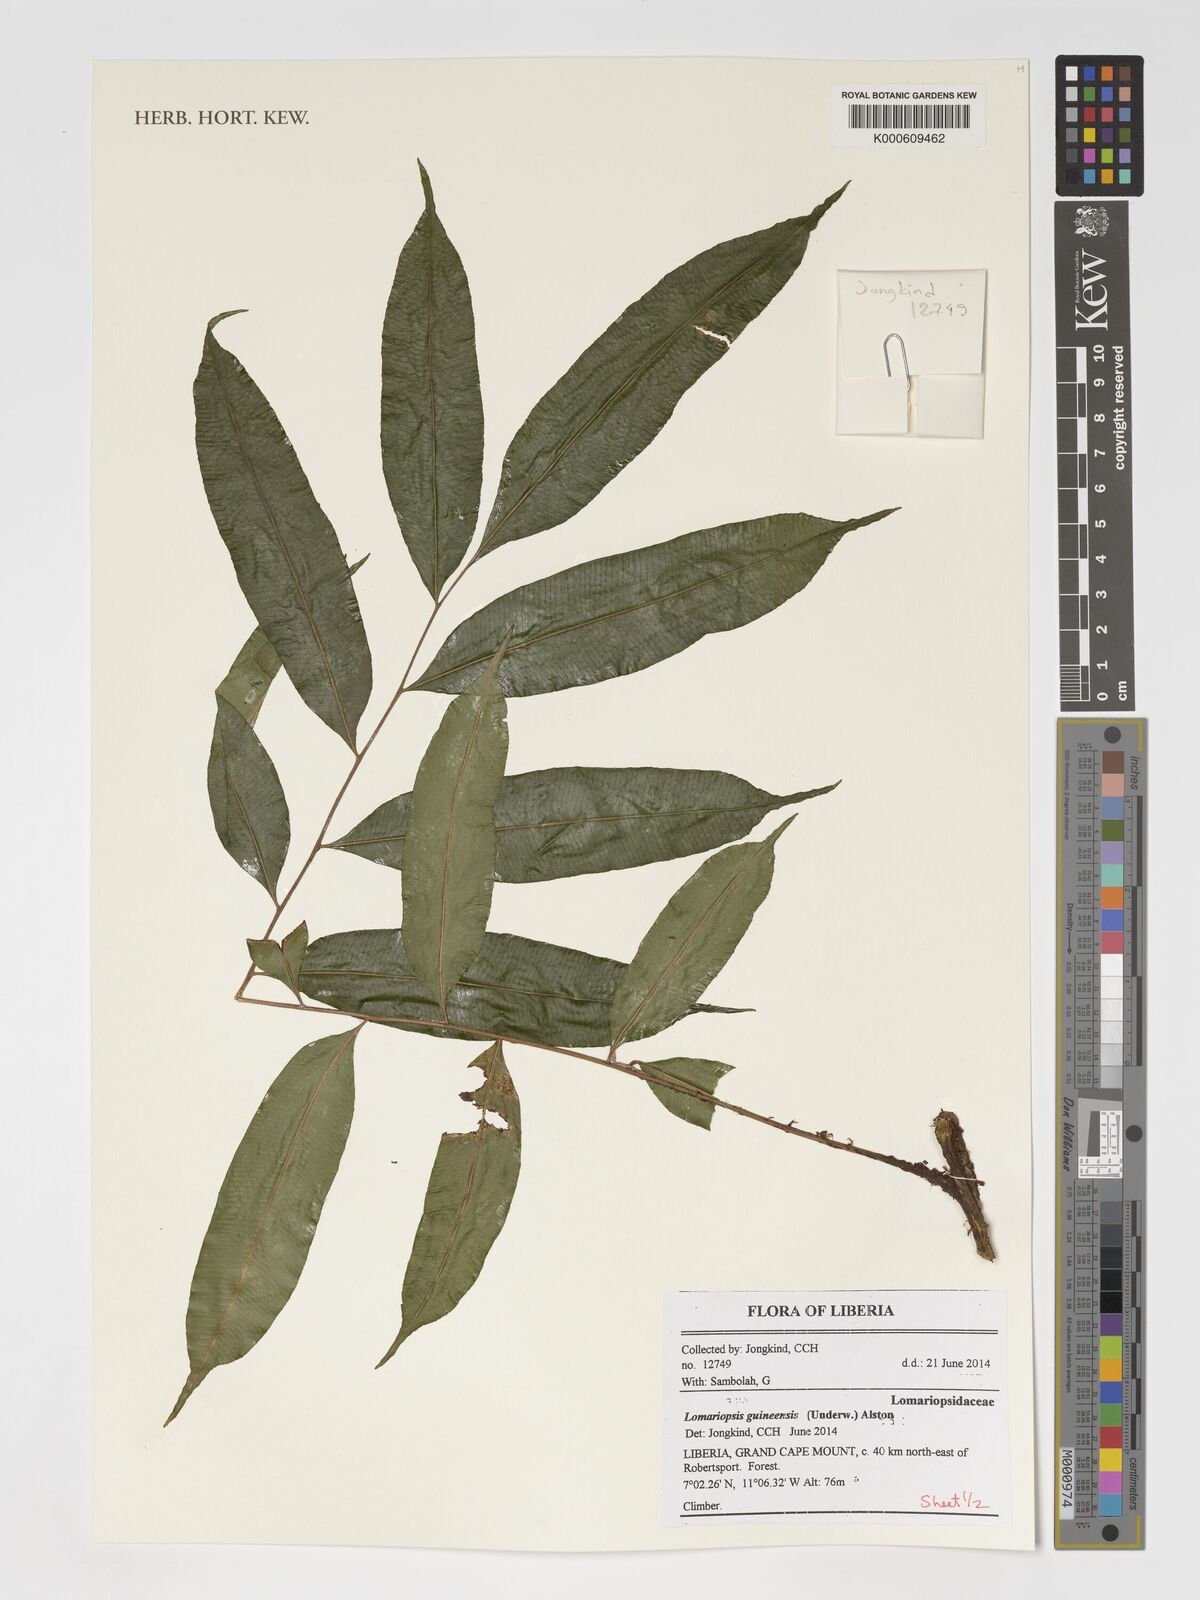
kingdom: Plantae
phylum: Tracheophyta
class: Polypodiopsida
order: Polypodiales
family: Lomariopsidaceae
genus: Lomariopsis
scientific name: Lomariopsis guineensis
